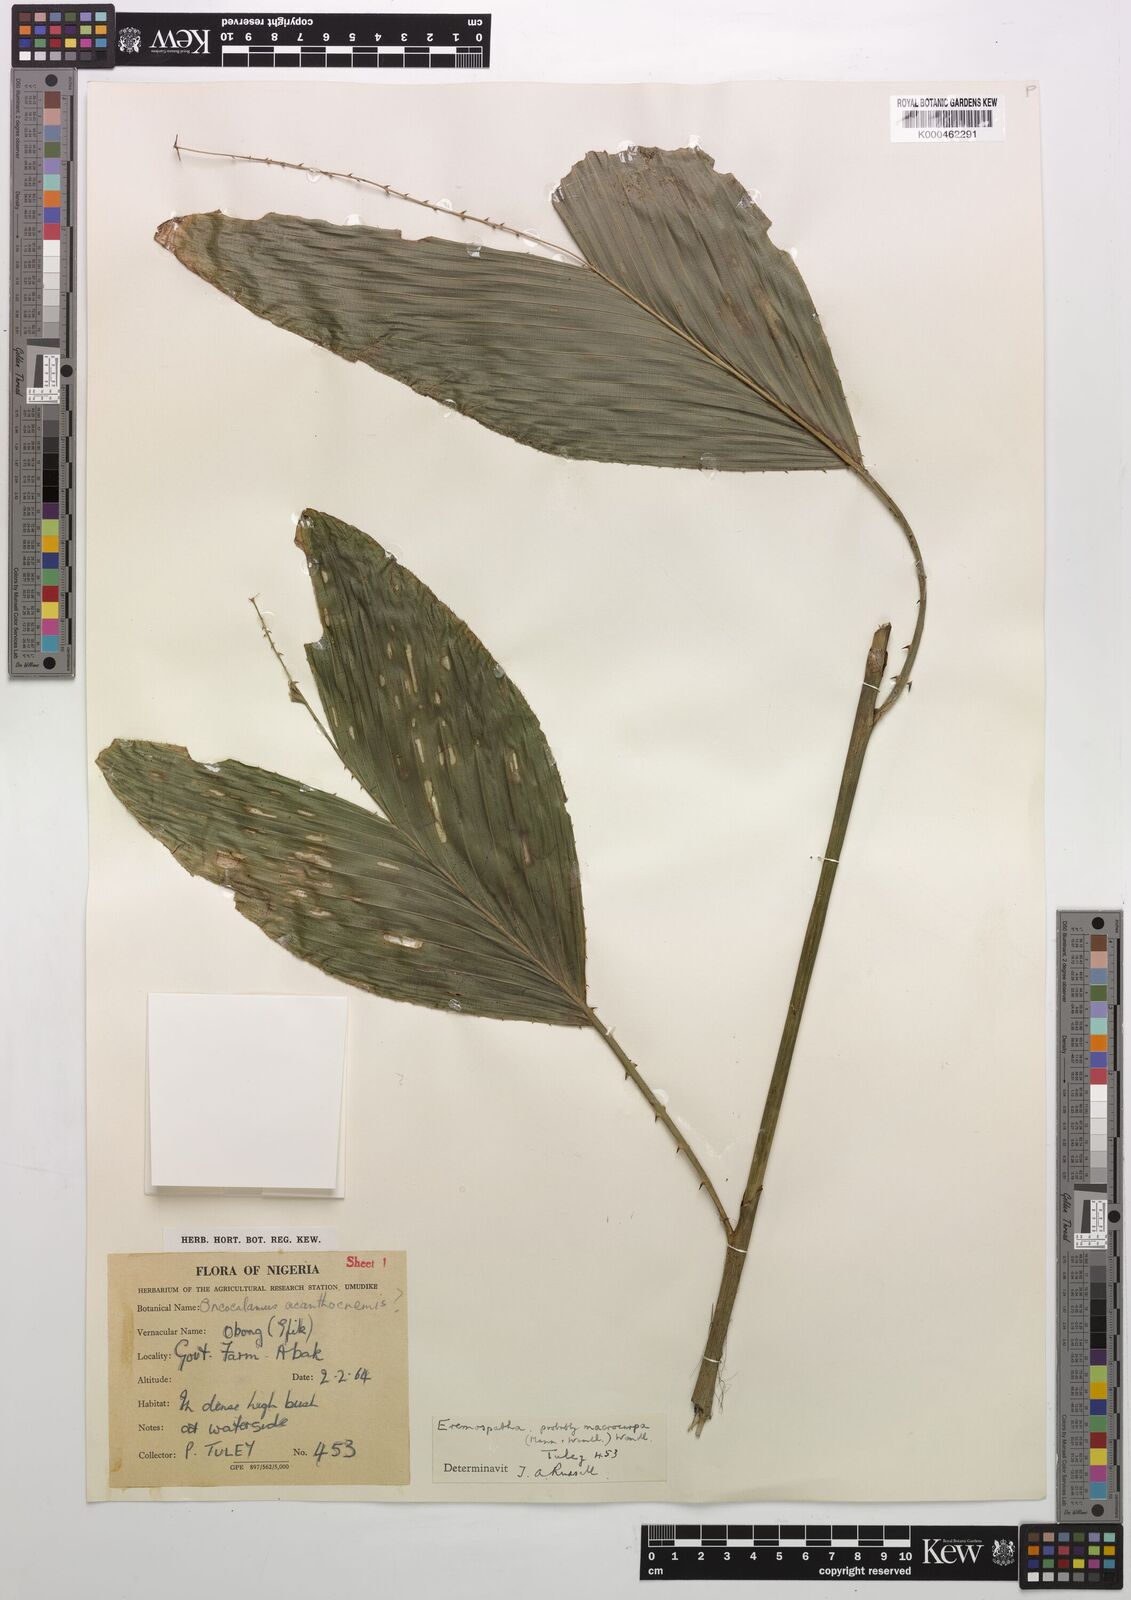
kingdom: Plantae
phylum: Tracheophyta
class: Liliopsida
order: Arecales
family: Arecaceae
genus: Eremospatha
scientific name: Eremospatha
